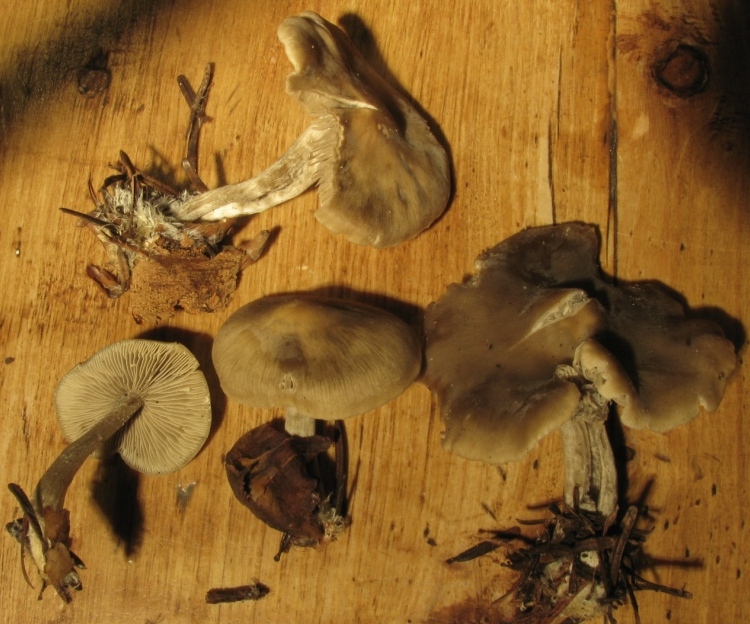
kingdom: Fungi
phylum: Basidiomycota
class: Agaricomycetes
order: Agaricales
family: Lyophyllaceae
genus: Myochromella
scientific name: Myochromella boudieri
